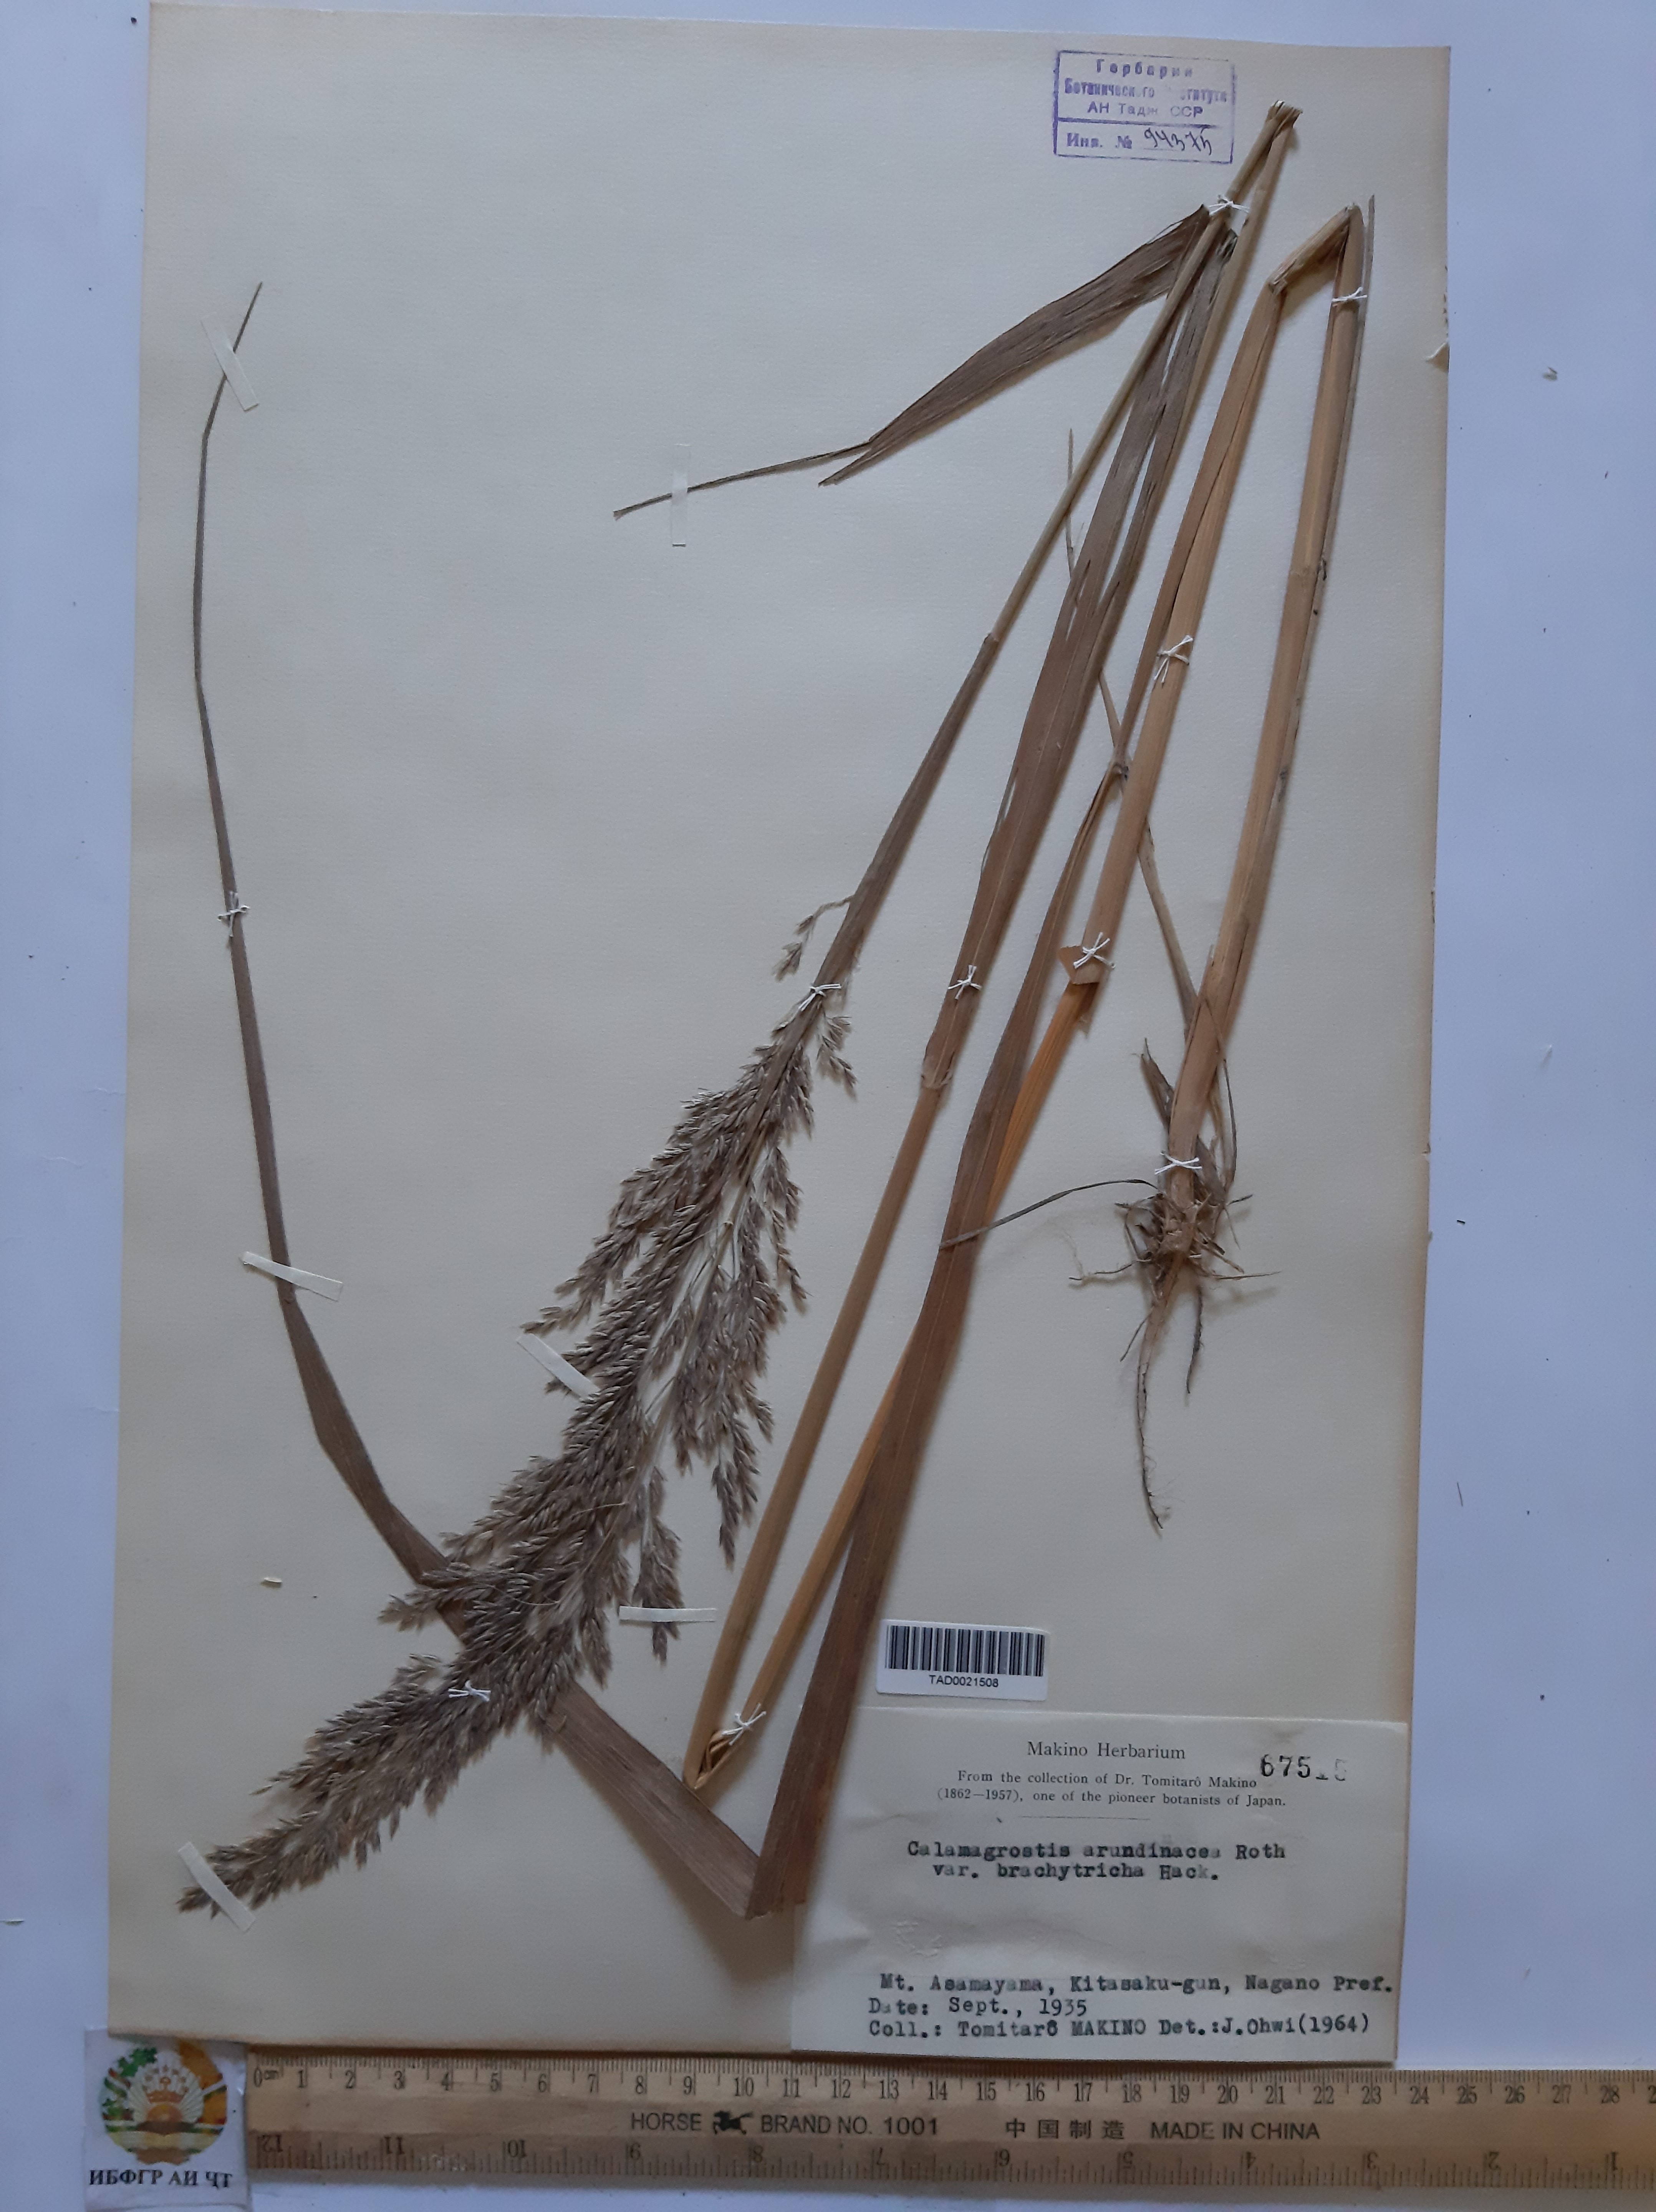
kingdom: Plantae
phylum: Tracheophyta
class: Liliopsida
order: Poales
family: Poaceae
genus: Calamagrostis
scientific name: Calamagrostis arundinacea
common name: Metskastik
